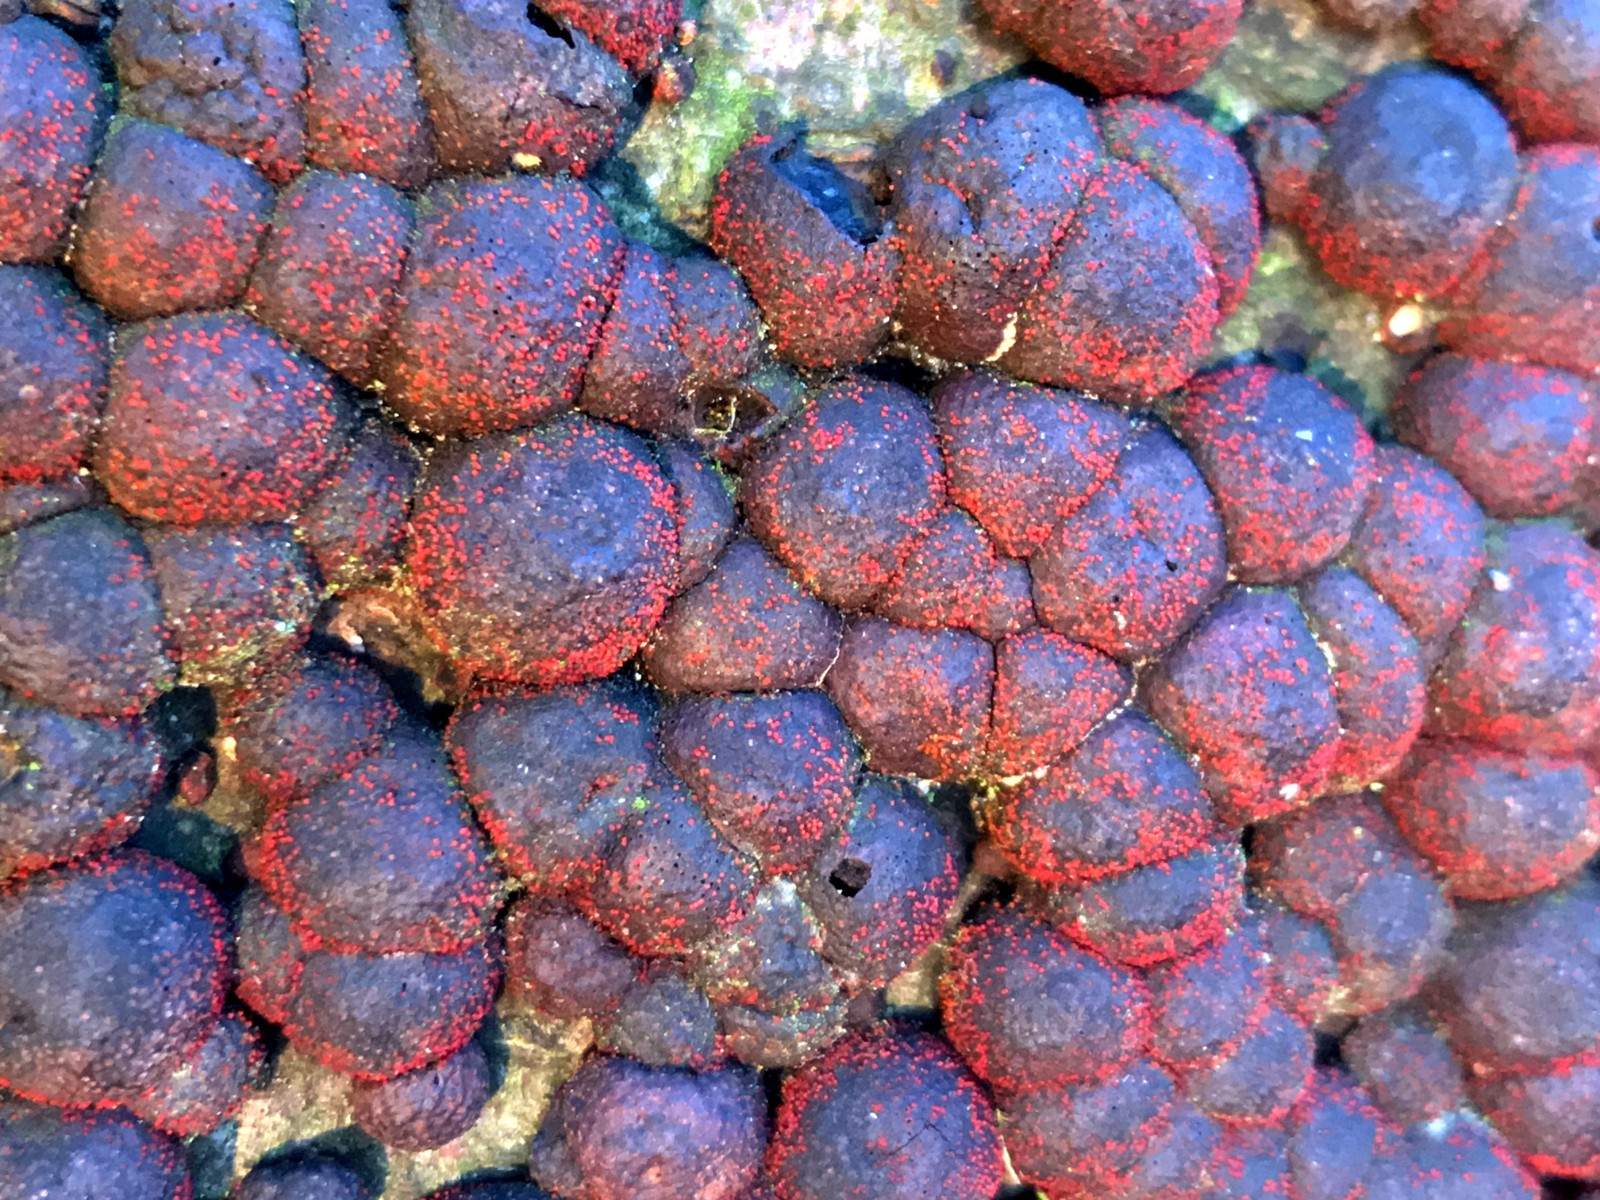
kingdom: Fungi
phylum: Ascomycota
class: Sordariomycetes
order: Xylariales
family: Hypoxylaceae
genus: Hypoxylon
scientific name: Hypoxylon fragiforme
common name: kuljordbær
